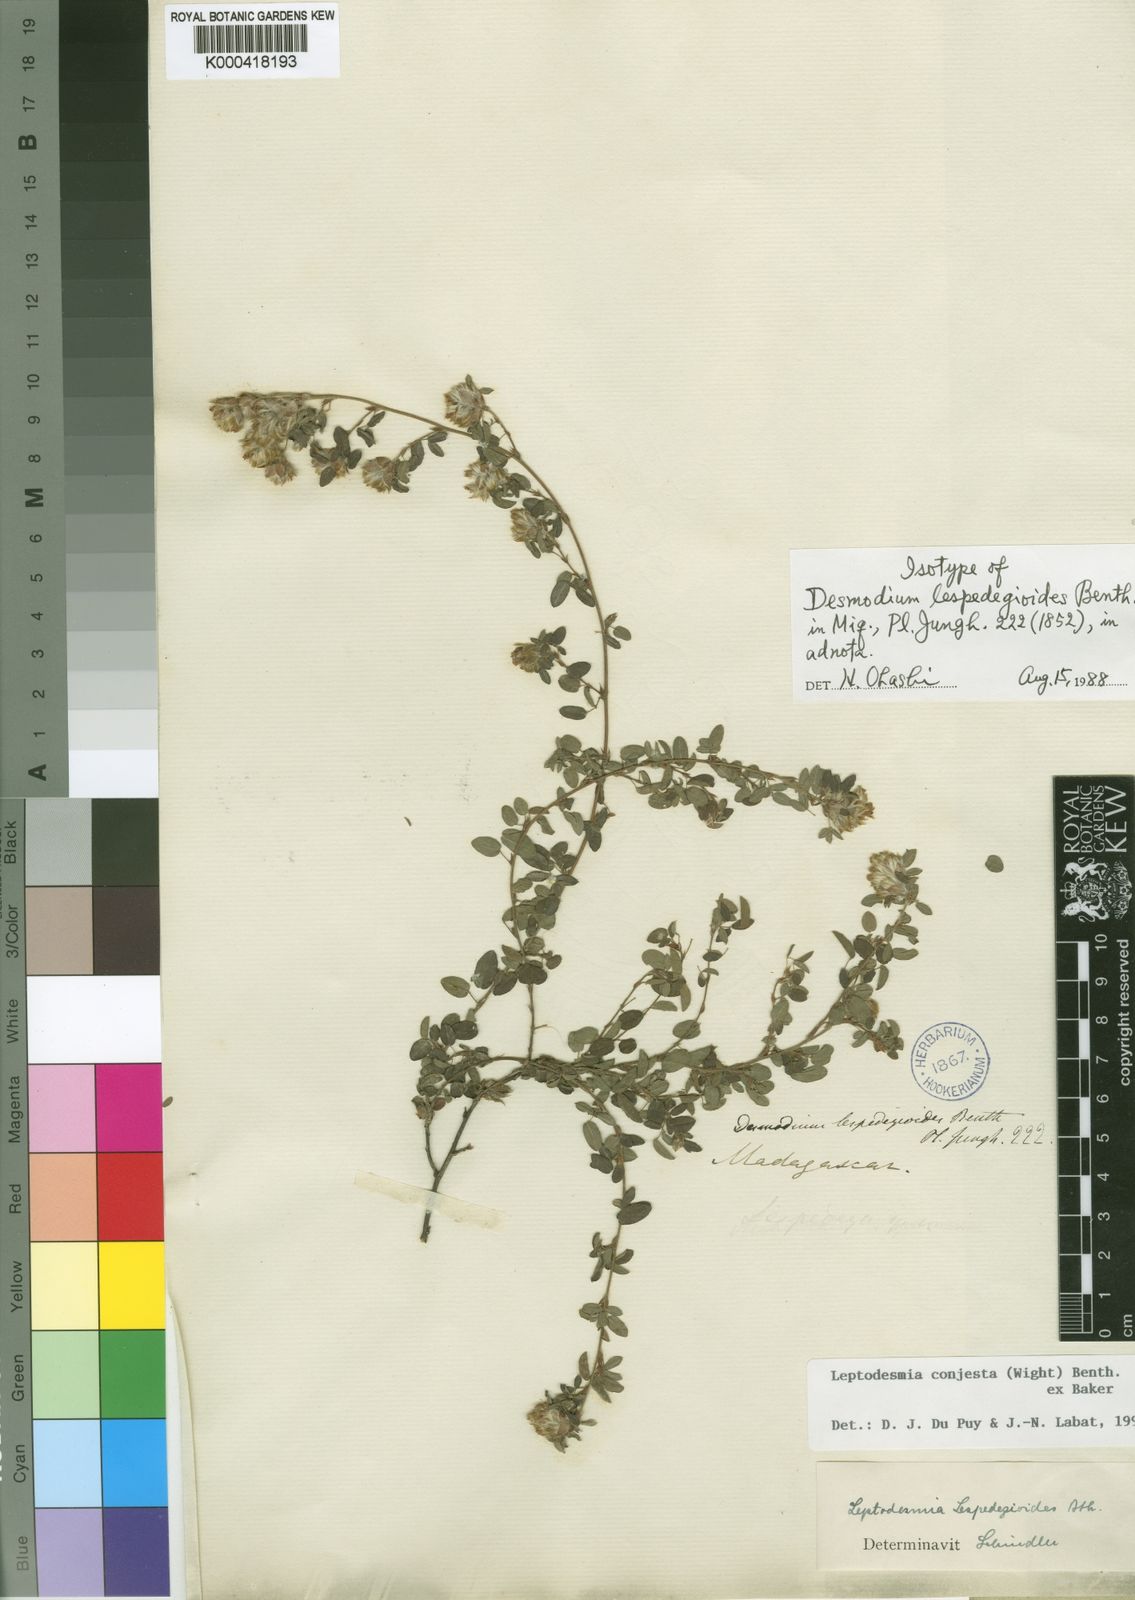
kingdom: Plantae
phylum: Tracheophyta
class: Magnoliopsida
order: Fabales
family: Fabaceae
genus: Leptodesmia
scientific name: Leptodesmia
